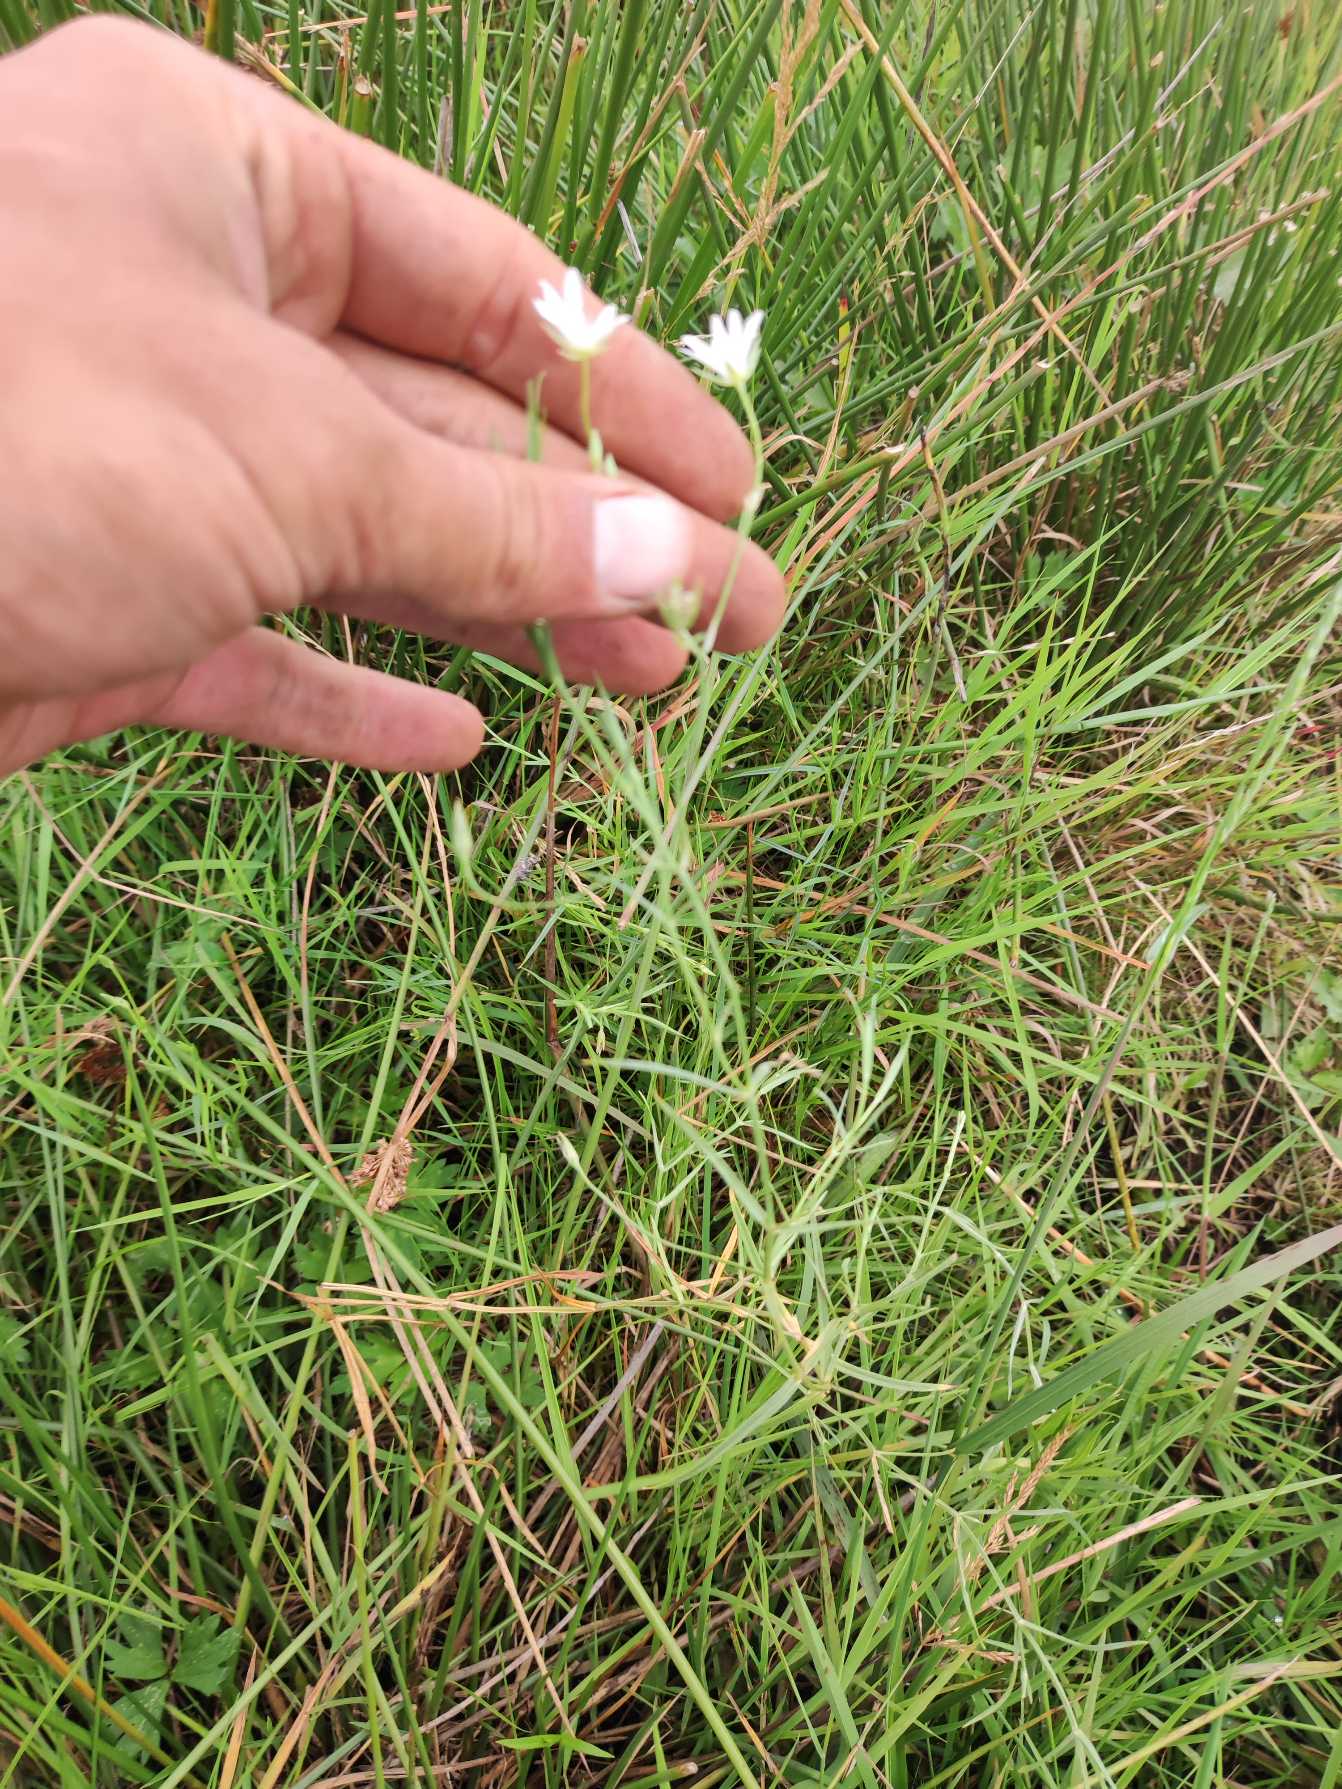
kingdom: Plantae
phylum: Tracheophyta
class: Magnoliopsida
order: Caryophyllales
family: Caryophyllaceae
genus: Stellaria
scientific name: Stellaria palustris
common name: Kær-fladstjerne
